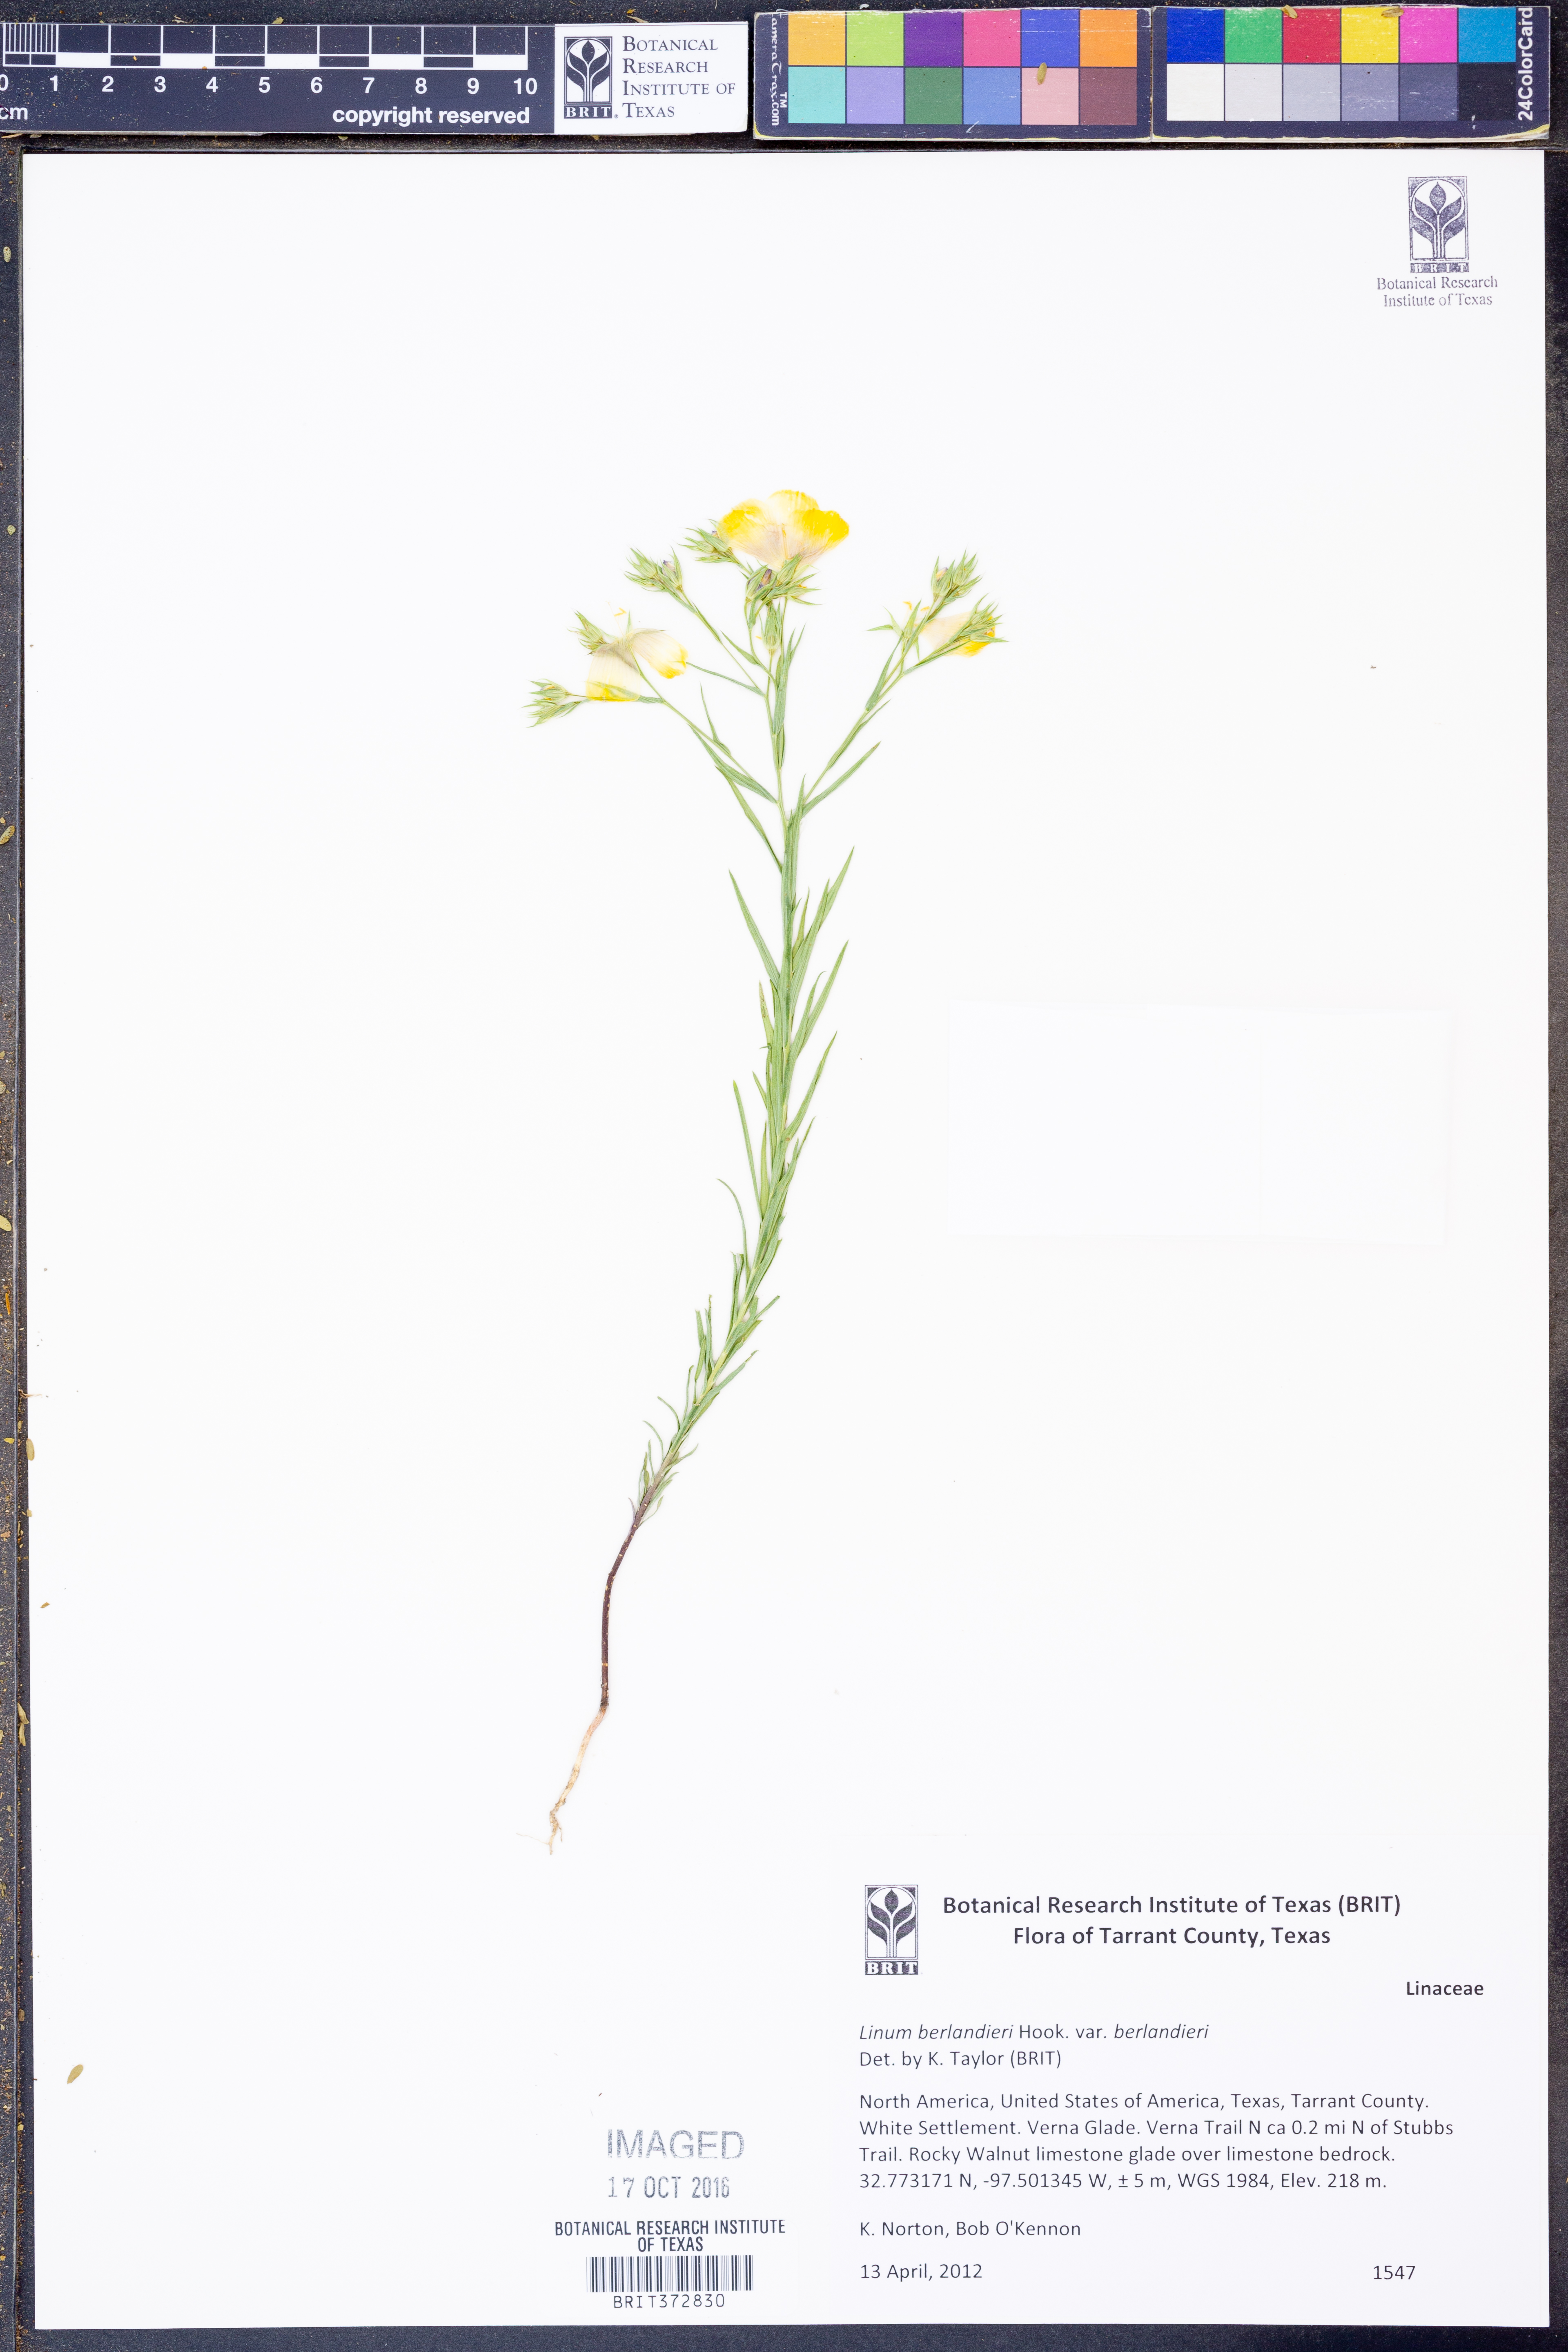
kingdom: Plantae
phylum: Tracheophyta
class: Magnoliopsida
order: Malpighiales
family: Linaceae
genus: Linum
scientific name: Linum berlandieri
